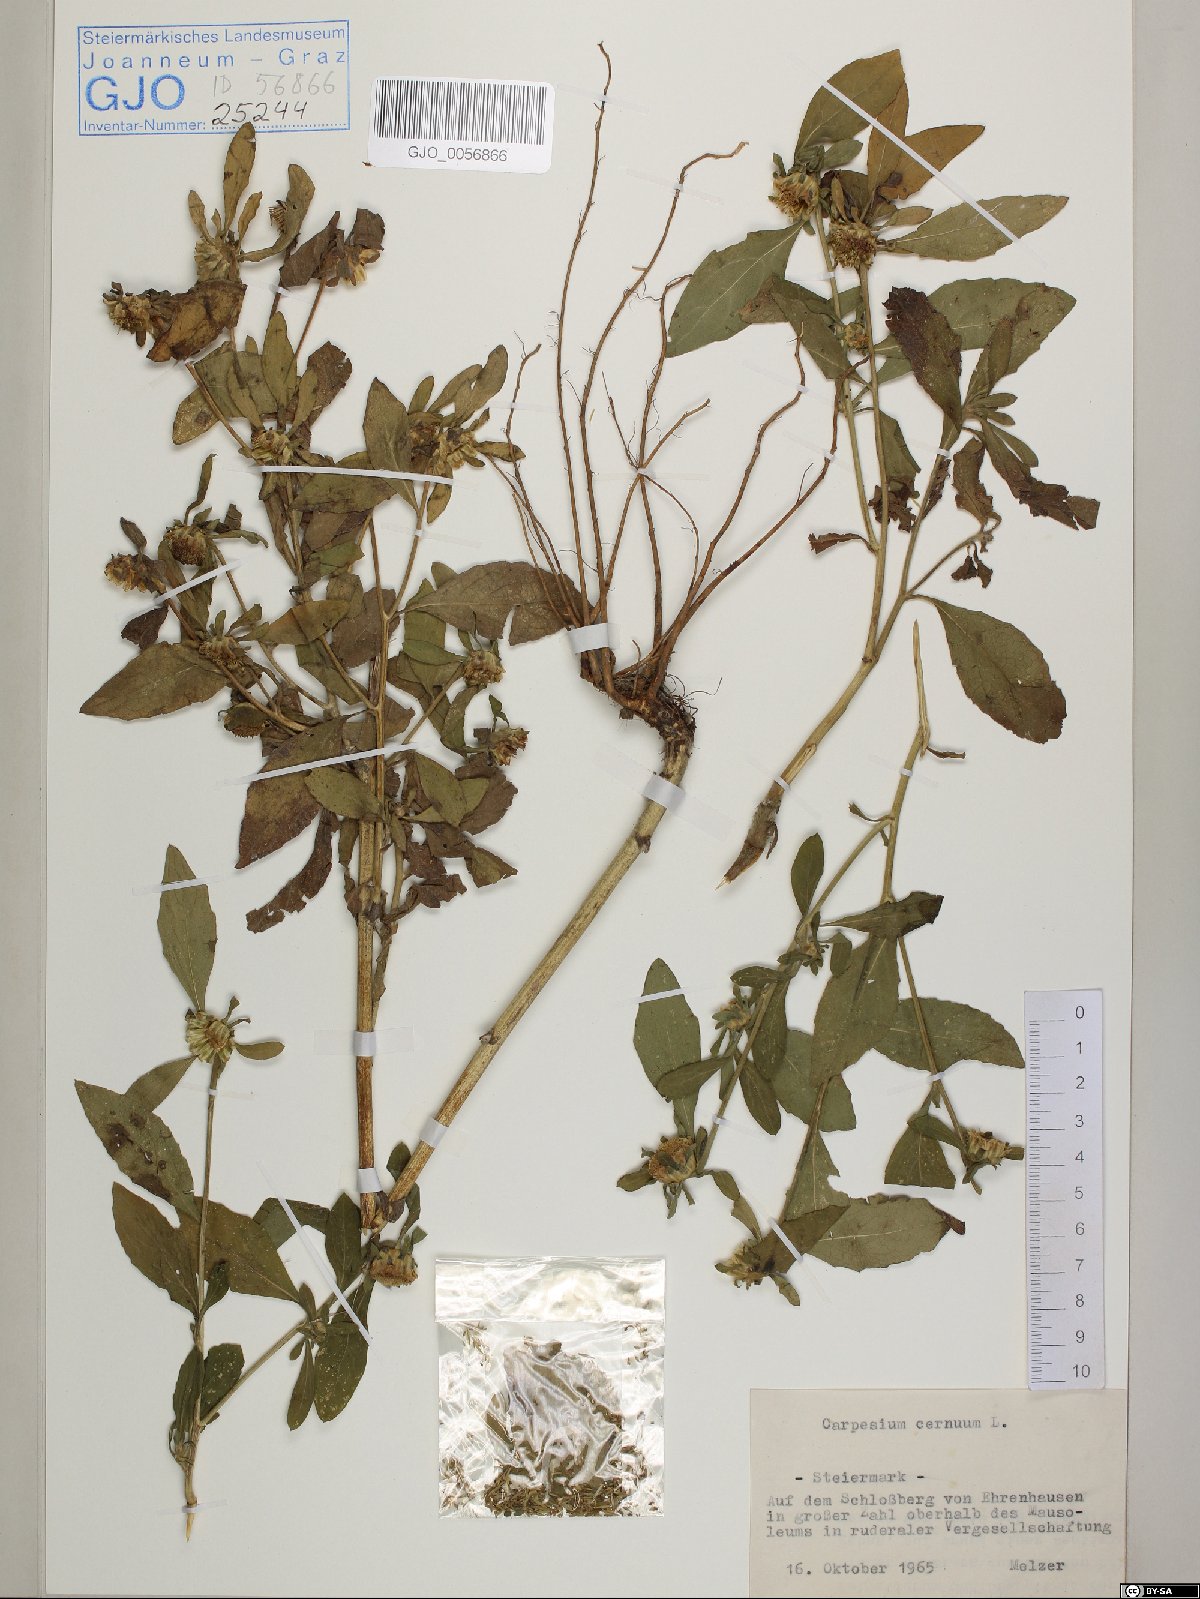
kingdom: Plantae
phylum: Tracheophyta
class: Magnoliopsida
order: Asterales
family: Asteraceae
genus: Carpesium
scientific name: Carpesium cernuum
